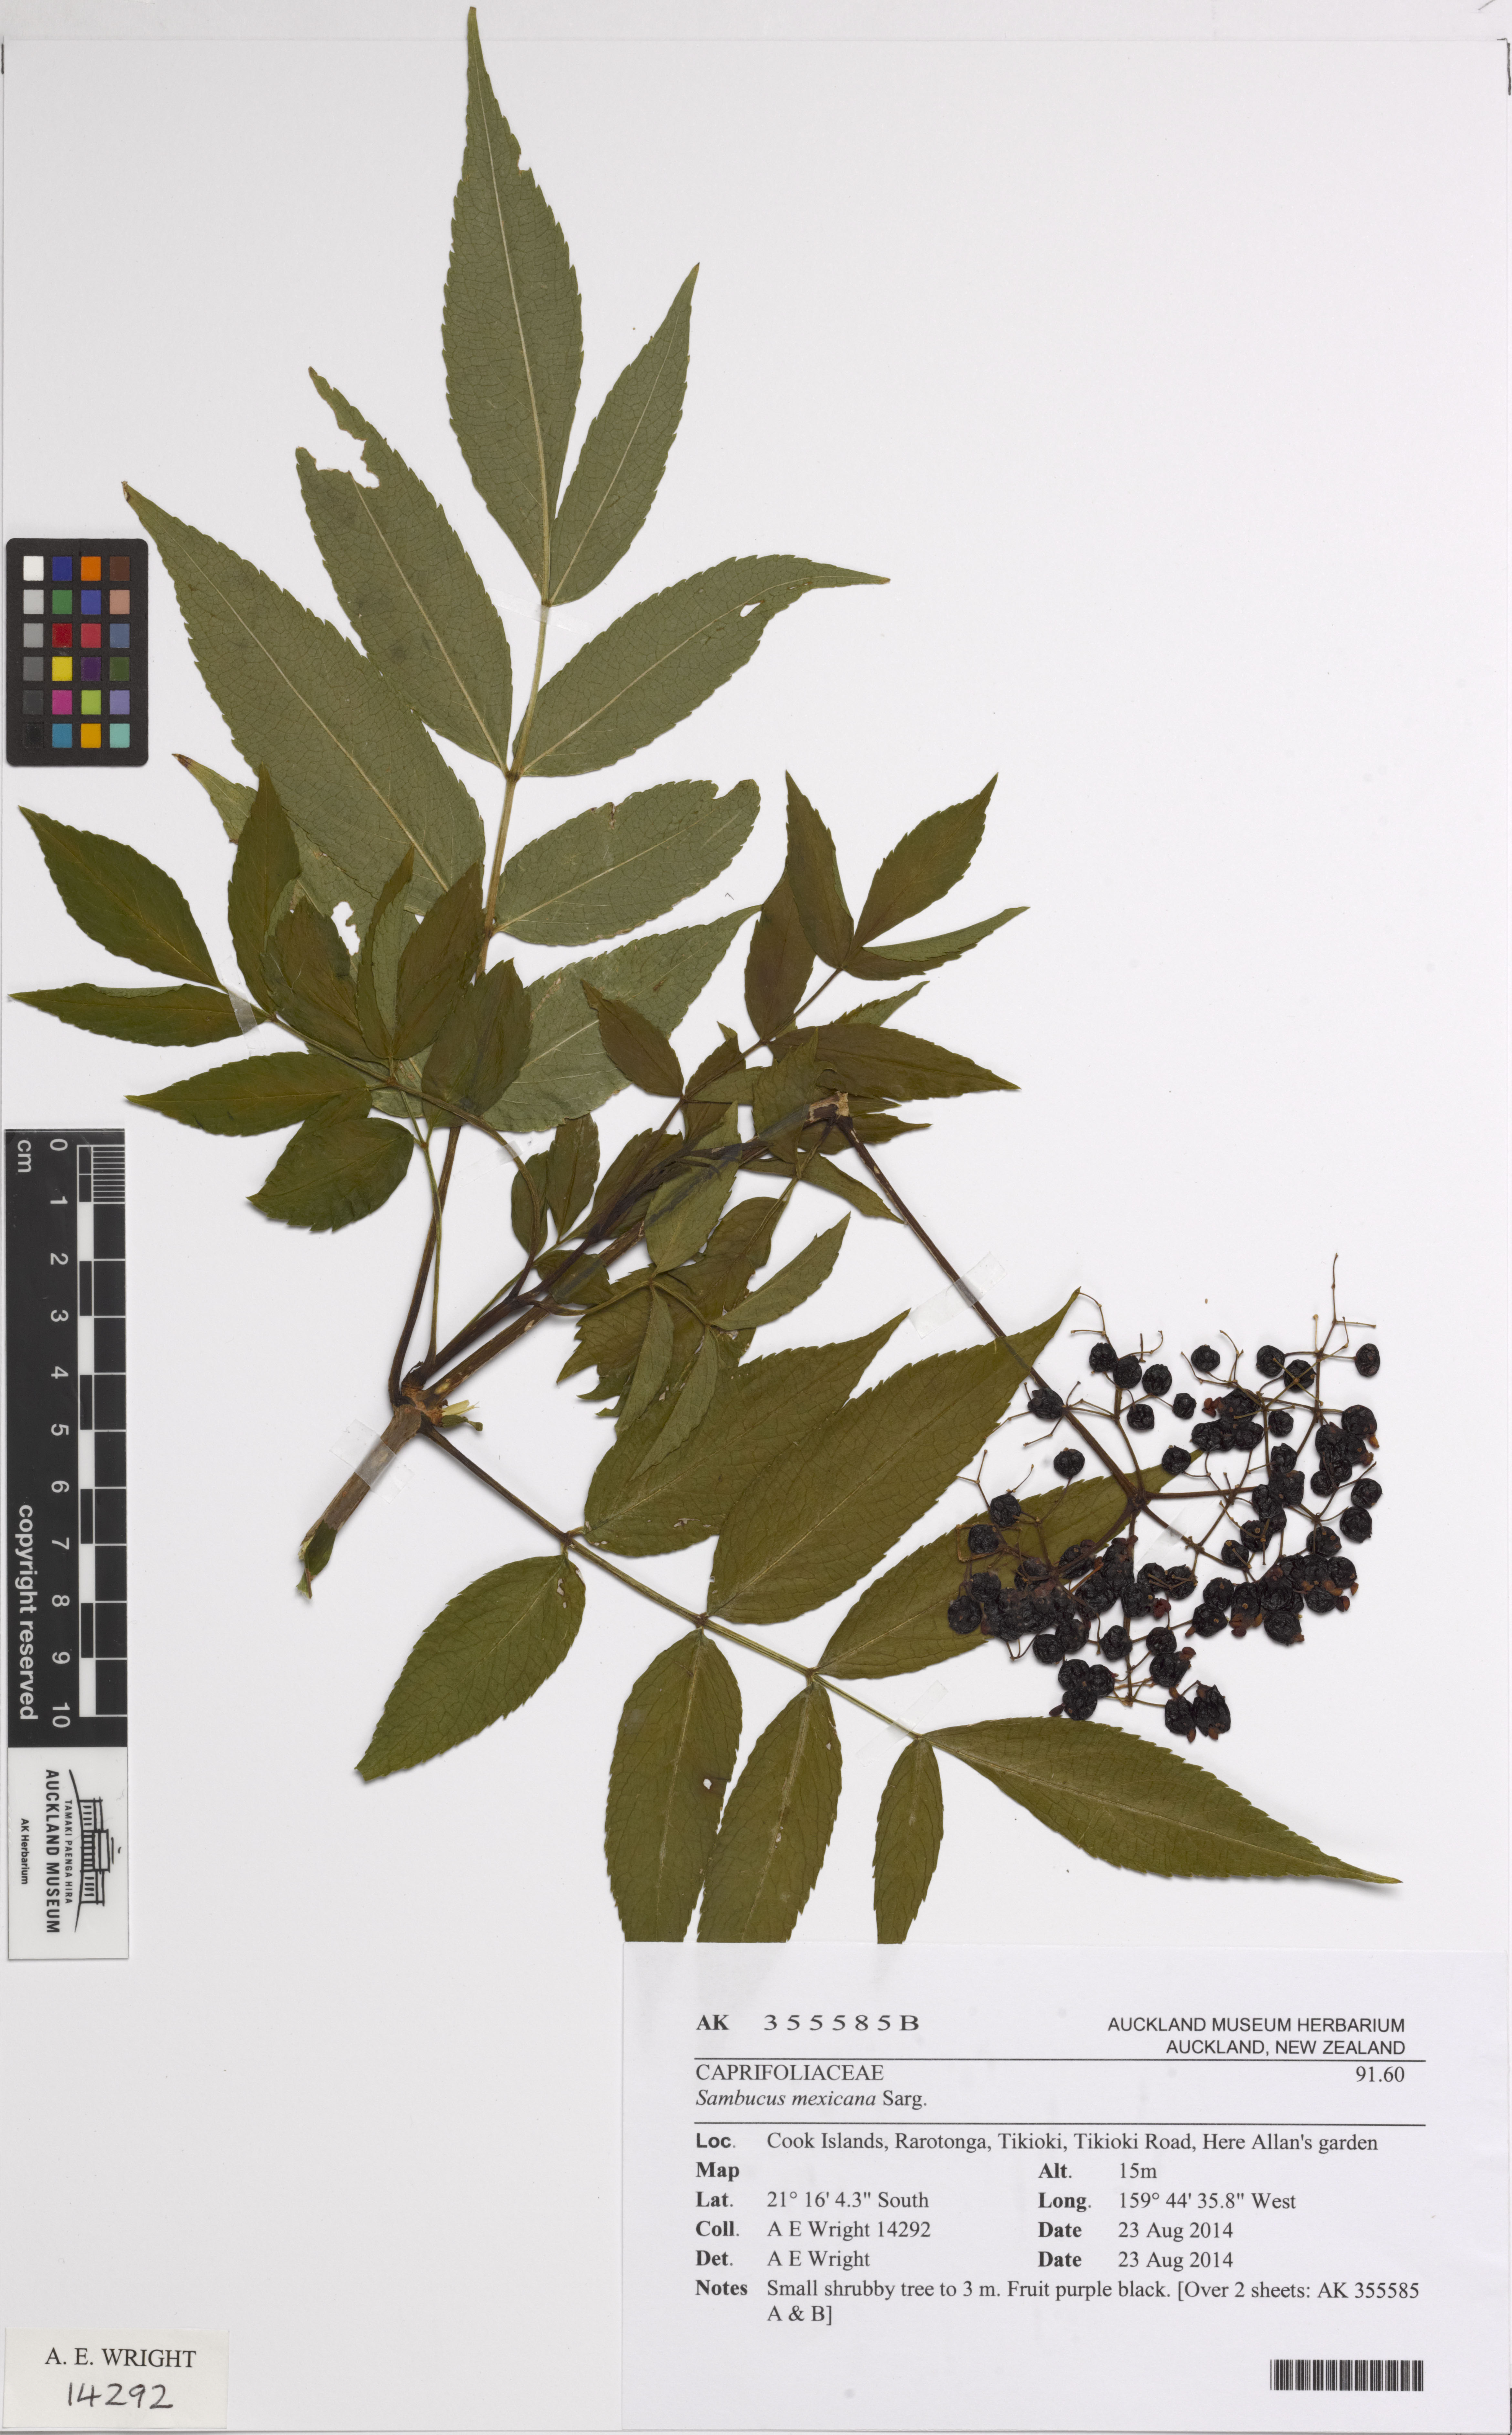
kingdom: Plantae
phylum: Tracheophyta
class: Magnoliopsida
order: Dipsacales
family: Viburnaceae
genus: Sambucus
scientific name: Sambucus canadensis
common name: American elder
